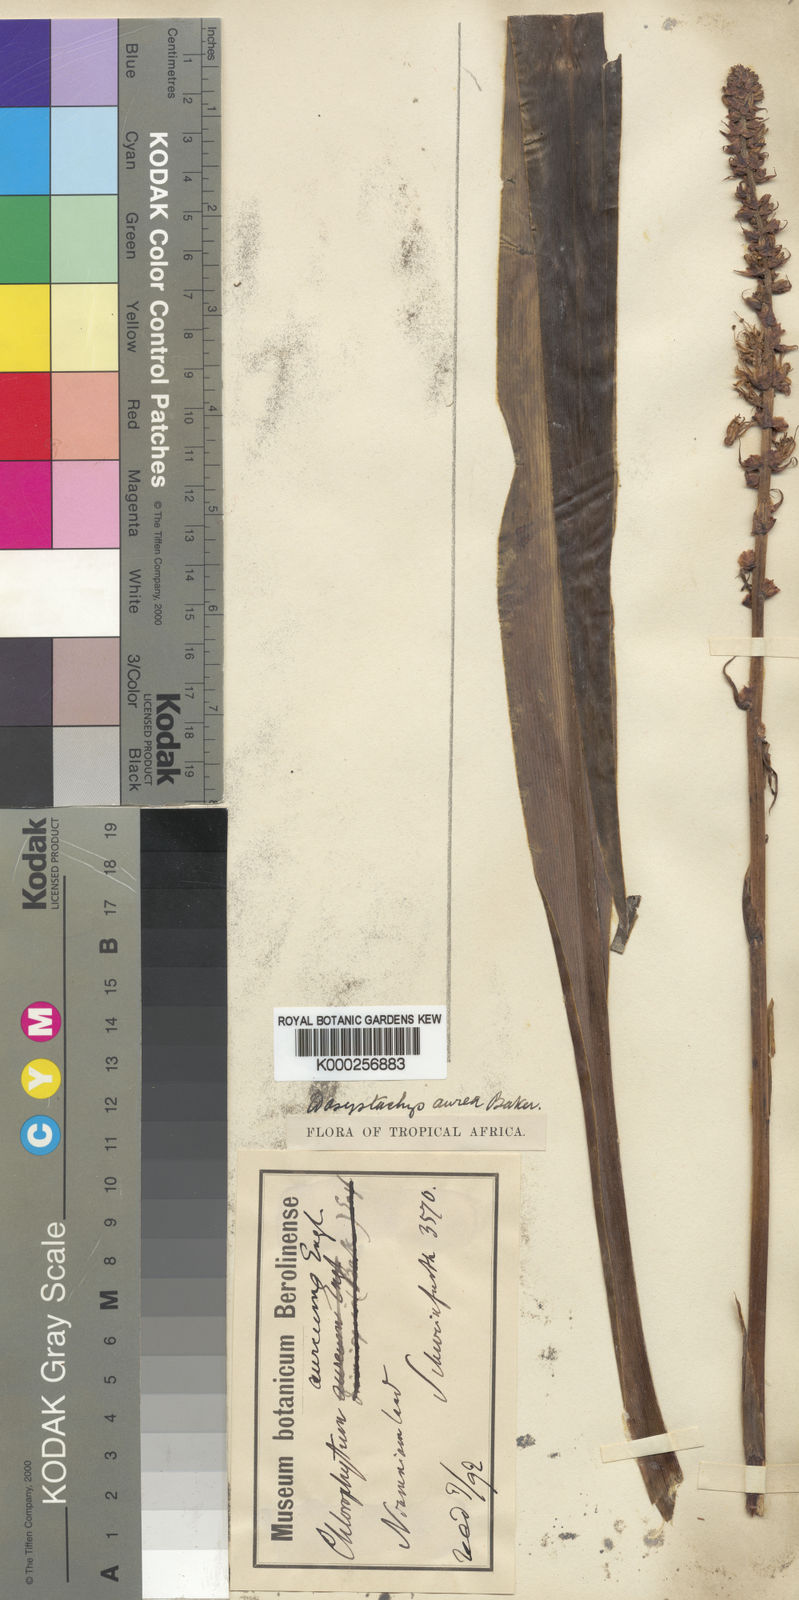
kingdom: Plantae
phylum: Tracheophyta
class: Liliopsida
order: Asparagales
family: Asparagaceae
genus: Chlorophytum
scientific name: Chlorophytum longifolium
